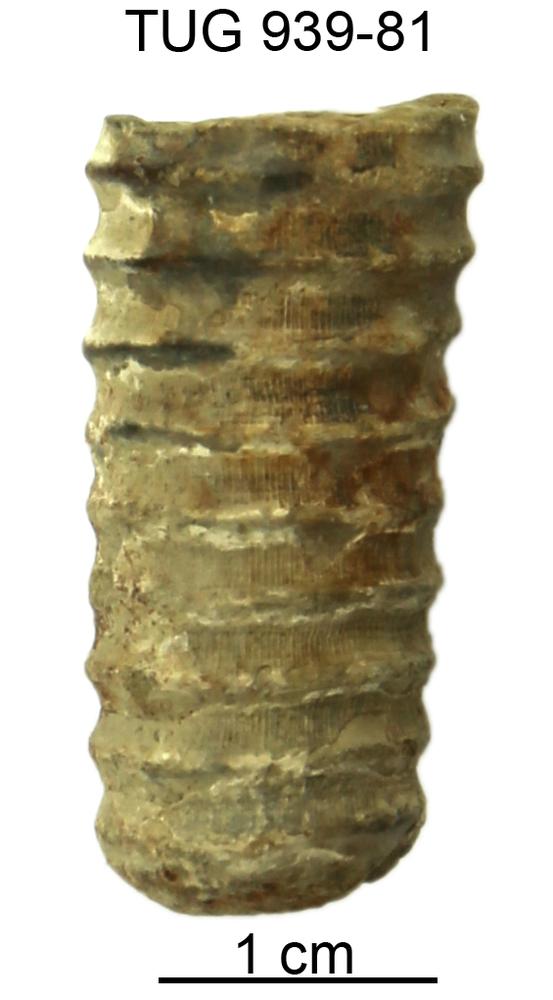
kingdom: Animalia
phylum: Mollusca
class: Cephalopoda
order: Orthocerida
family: Pseudorthoceratidae
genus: Spyroceras
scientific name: Spyroceras
